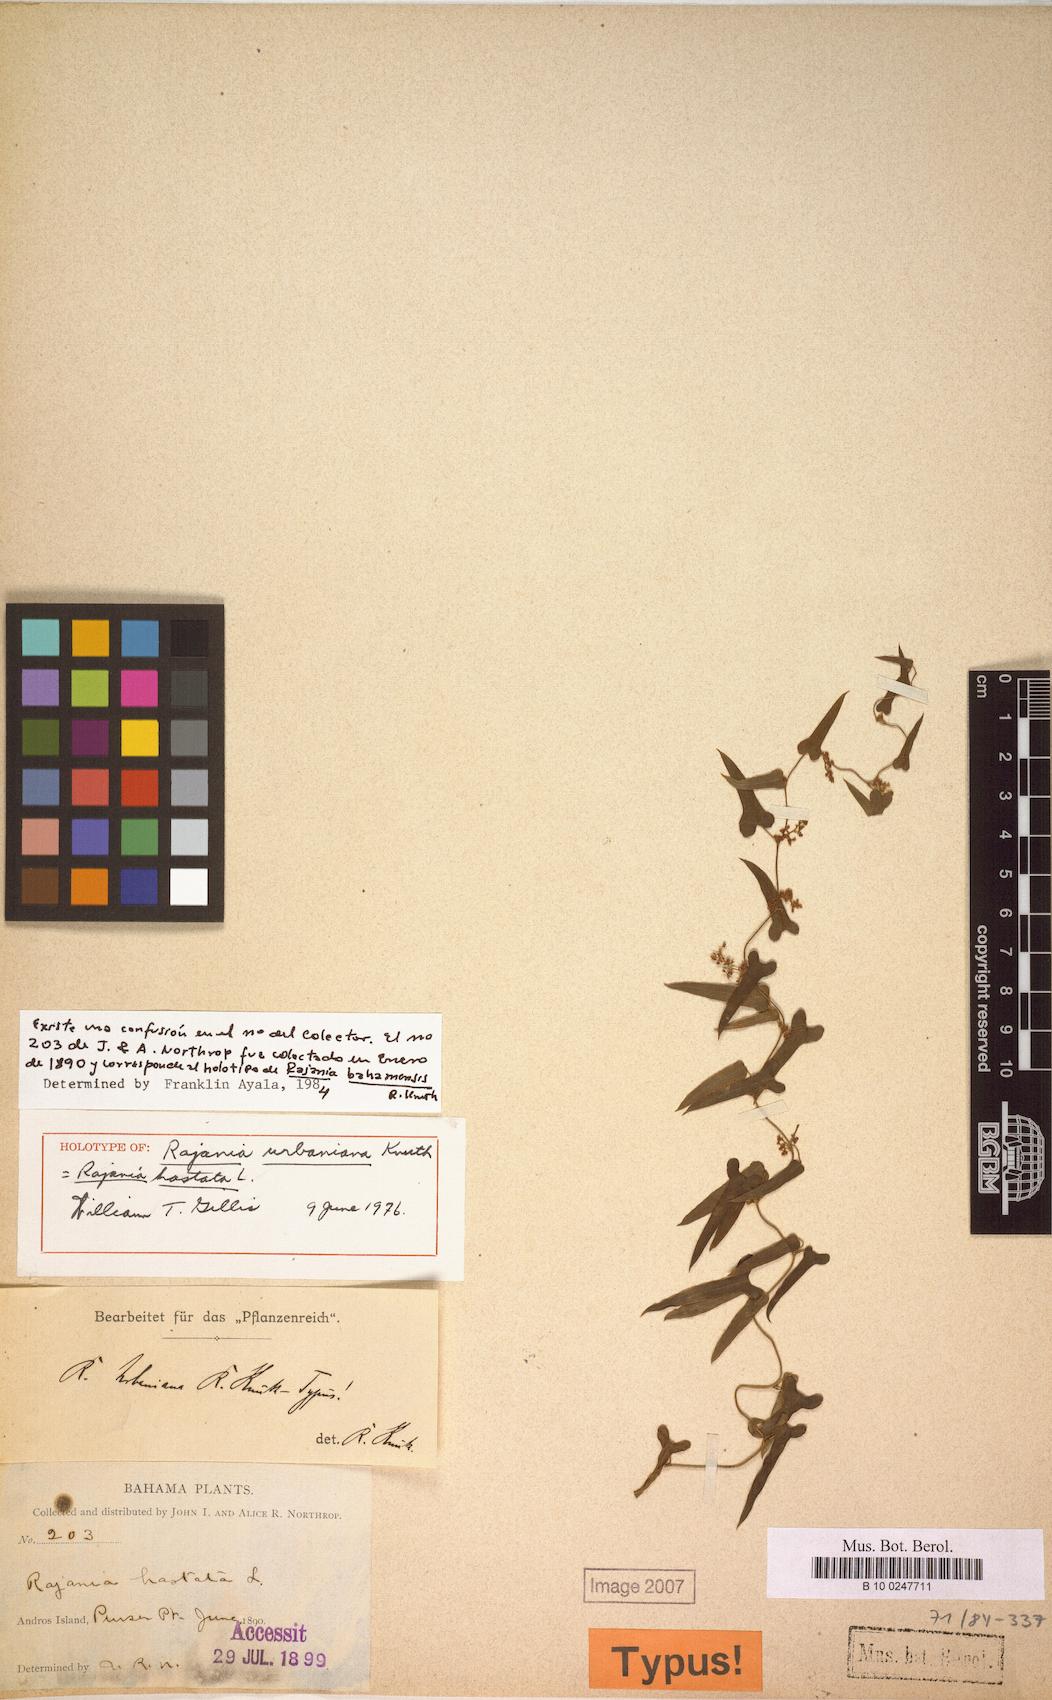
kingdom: Plantae
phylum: Tracheophyta
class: Liliopsida
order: Dioscoreales
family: Dioscoreaceae
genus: Dioscorea
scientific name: Dioscorea alainii
